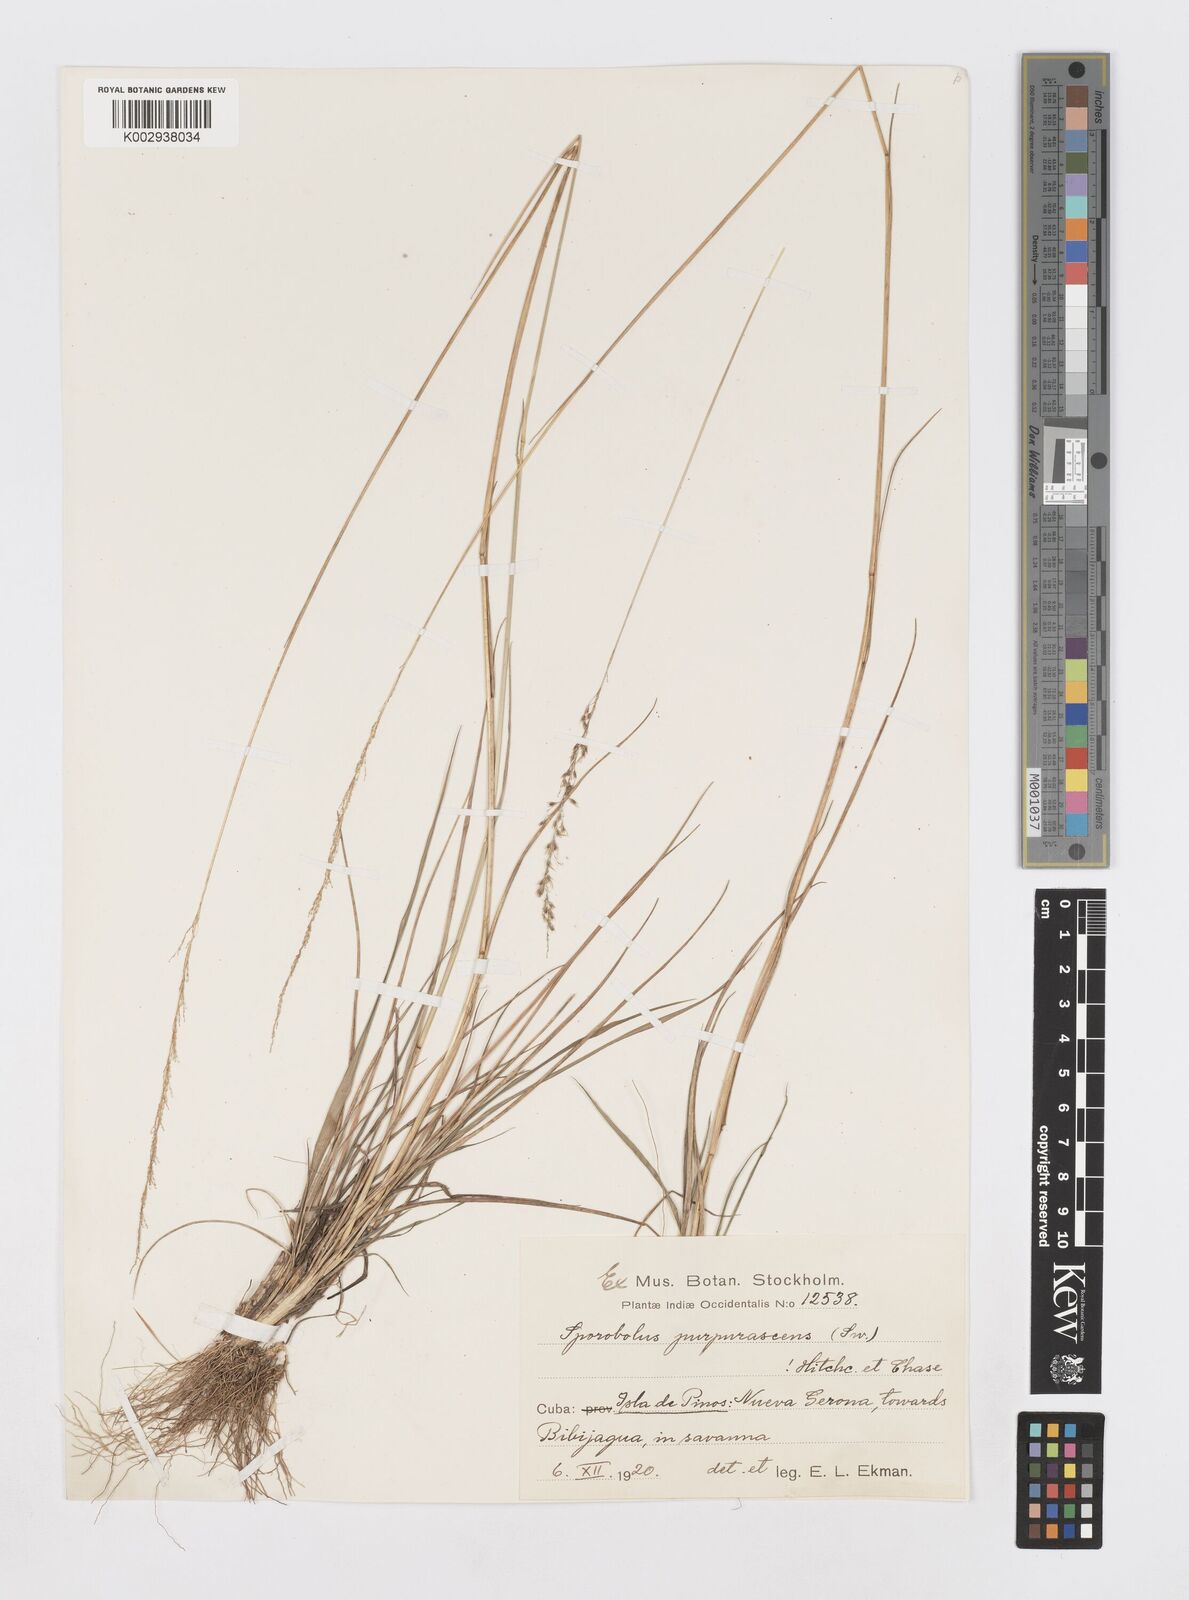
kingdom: Plantae
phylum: Tracheophyta
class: Liliopsida
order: Poales
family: Poaceae
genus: Sporobolus
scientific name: Sporobolus purpurascens
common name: Purple dropseed
